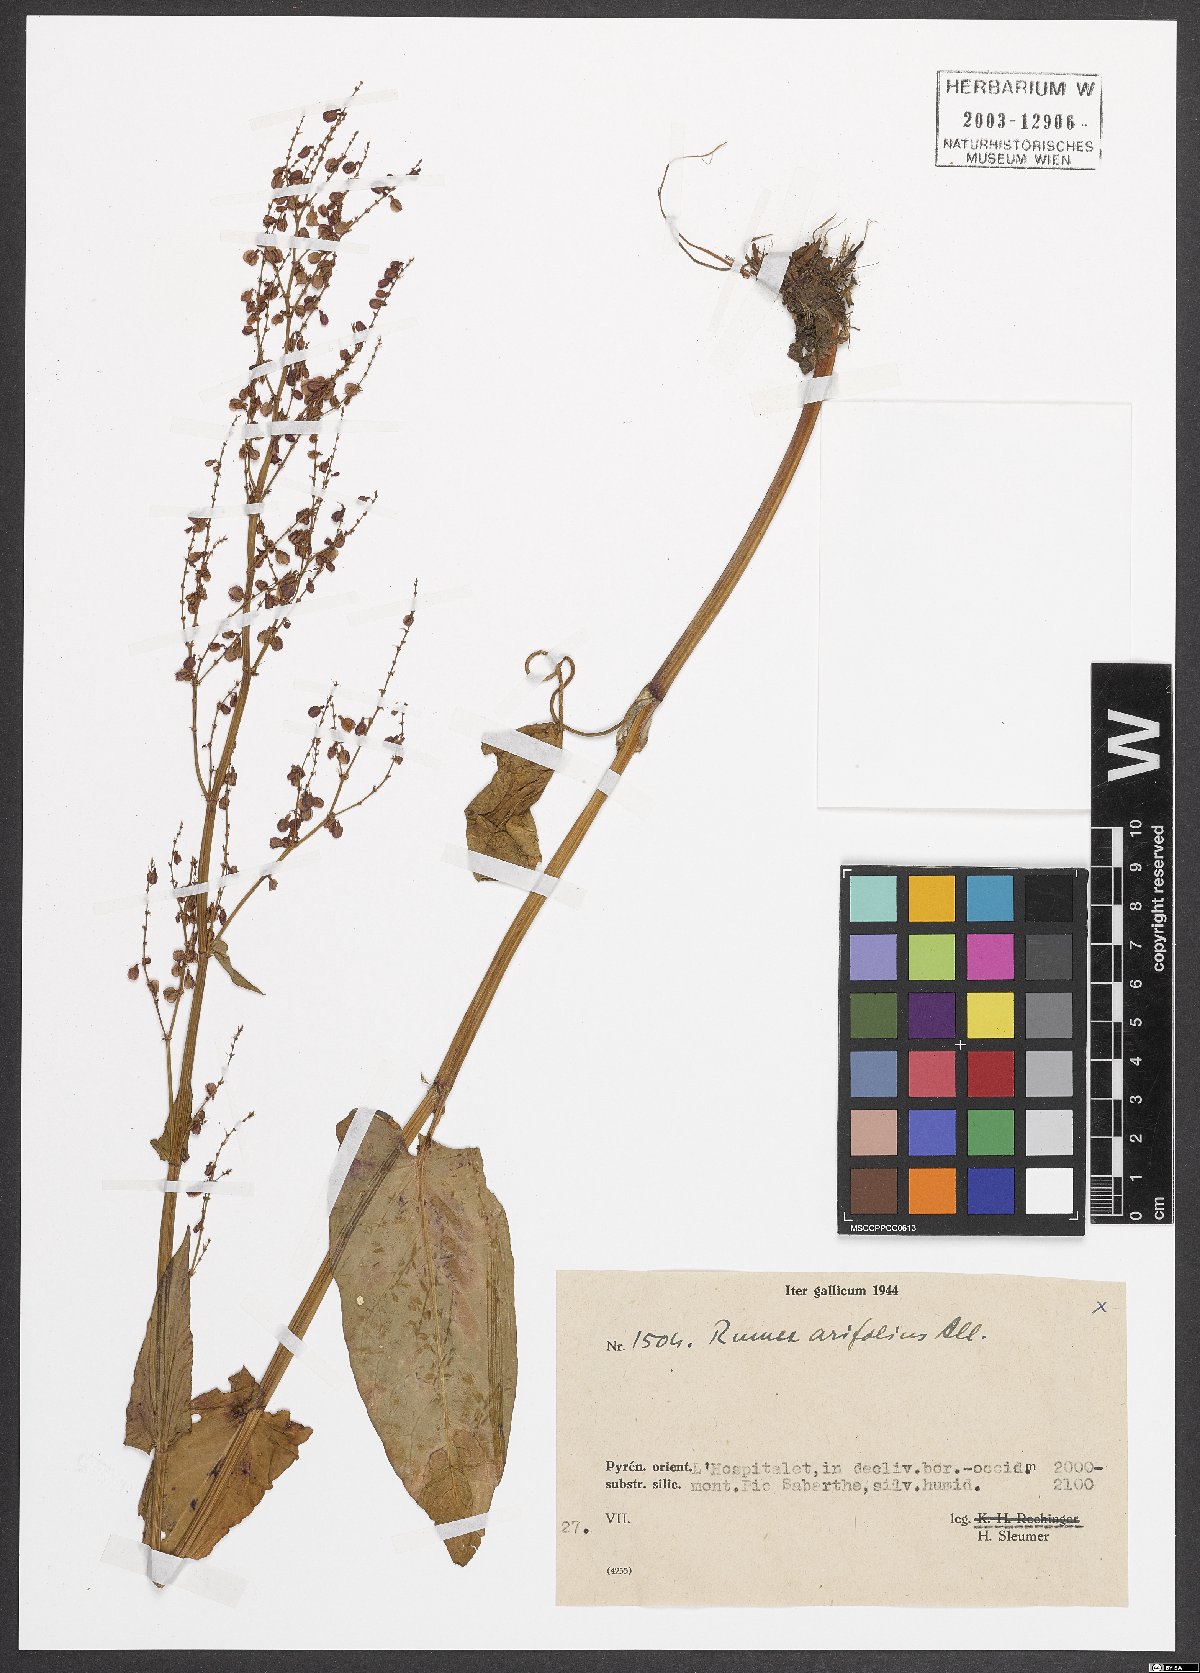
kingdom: Plantae
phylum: Tracheophyta
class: Magnoliopsida
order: Caryophyllales
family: Polygonaceae
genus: Rumex
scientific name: Rumex arifolius
